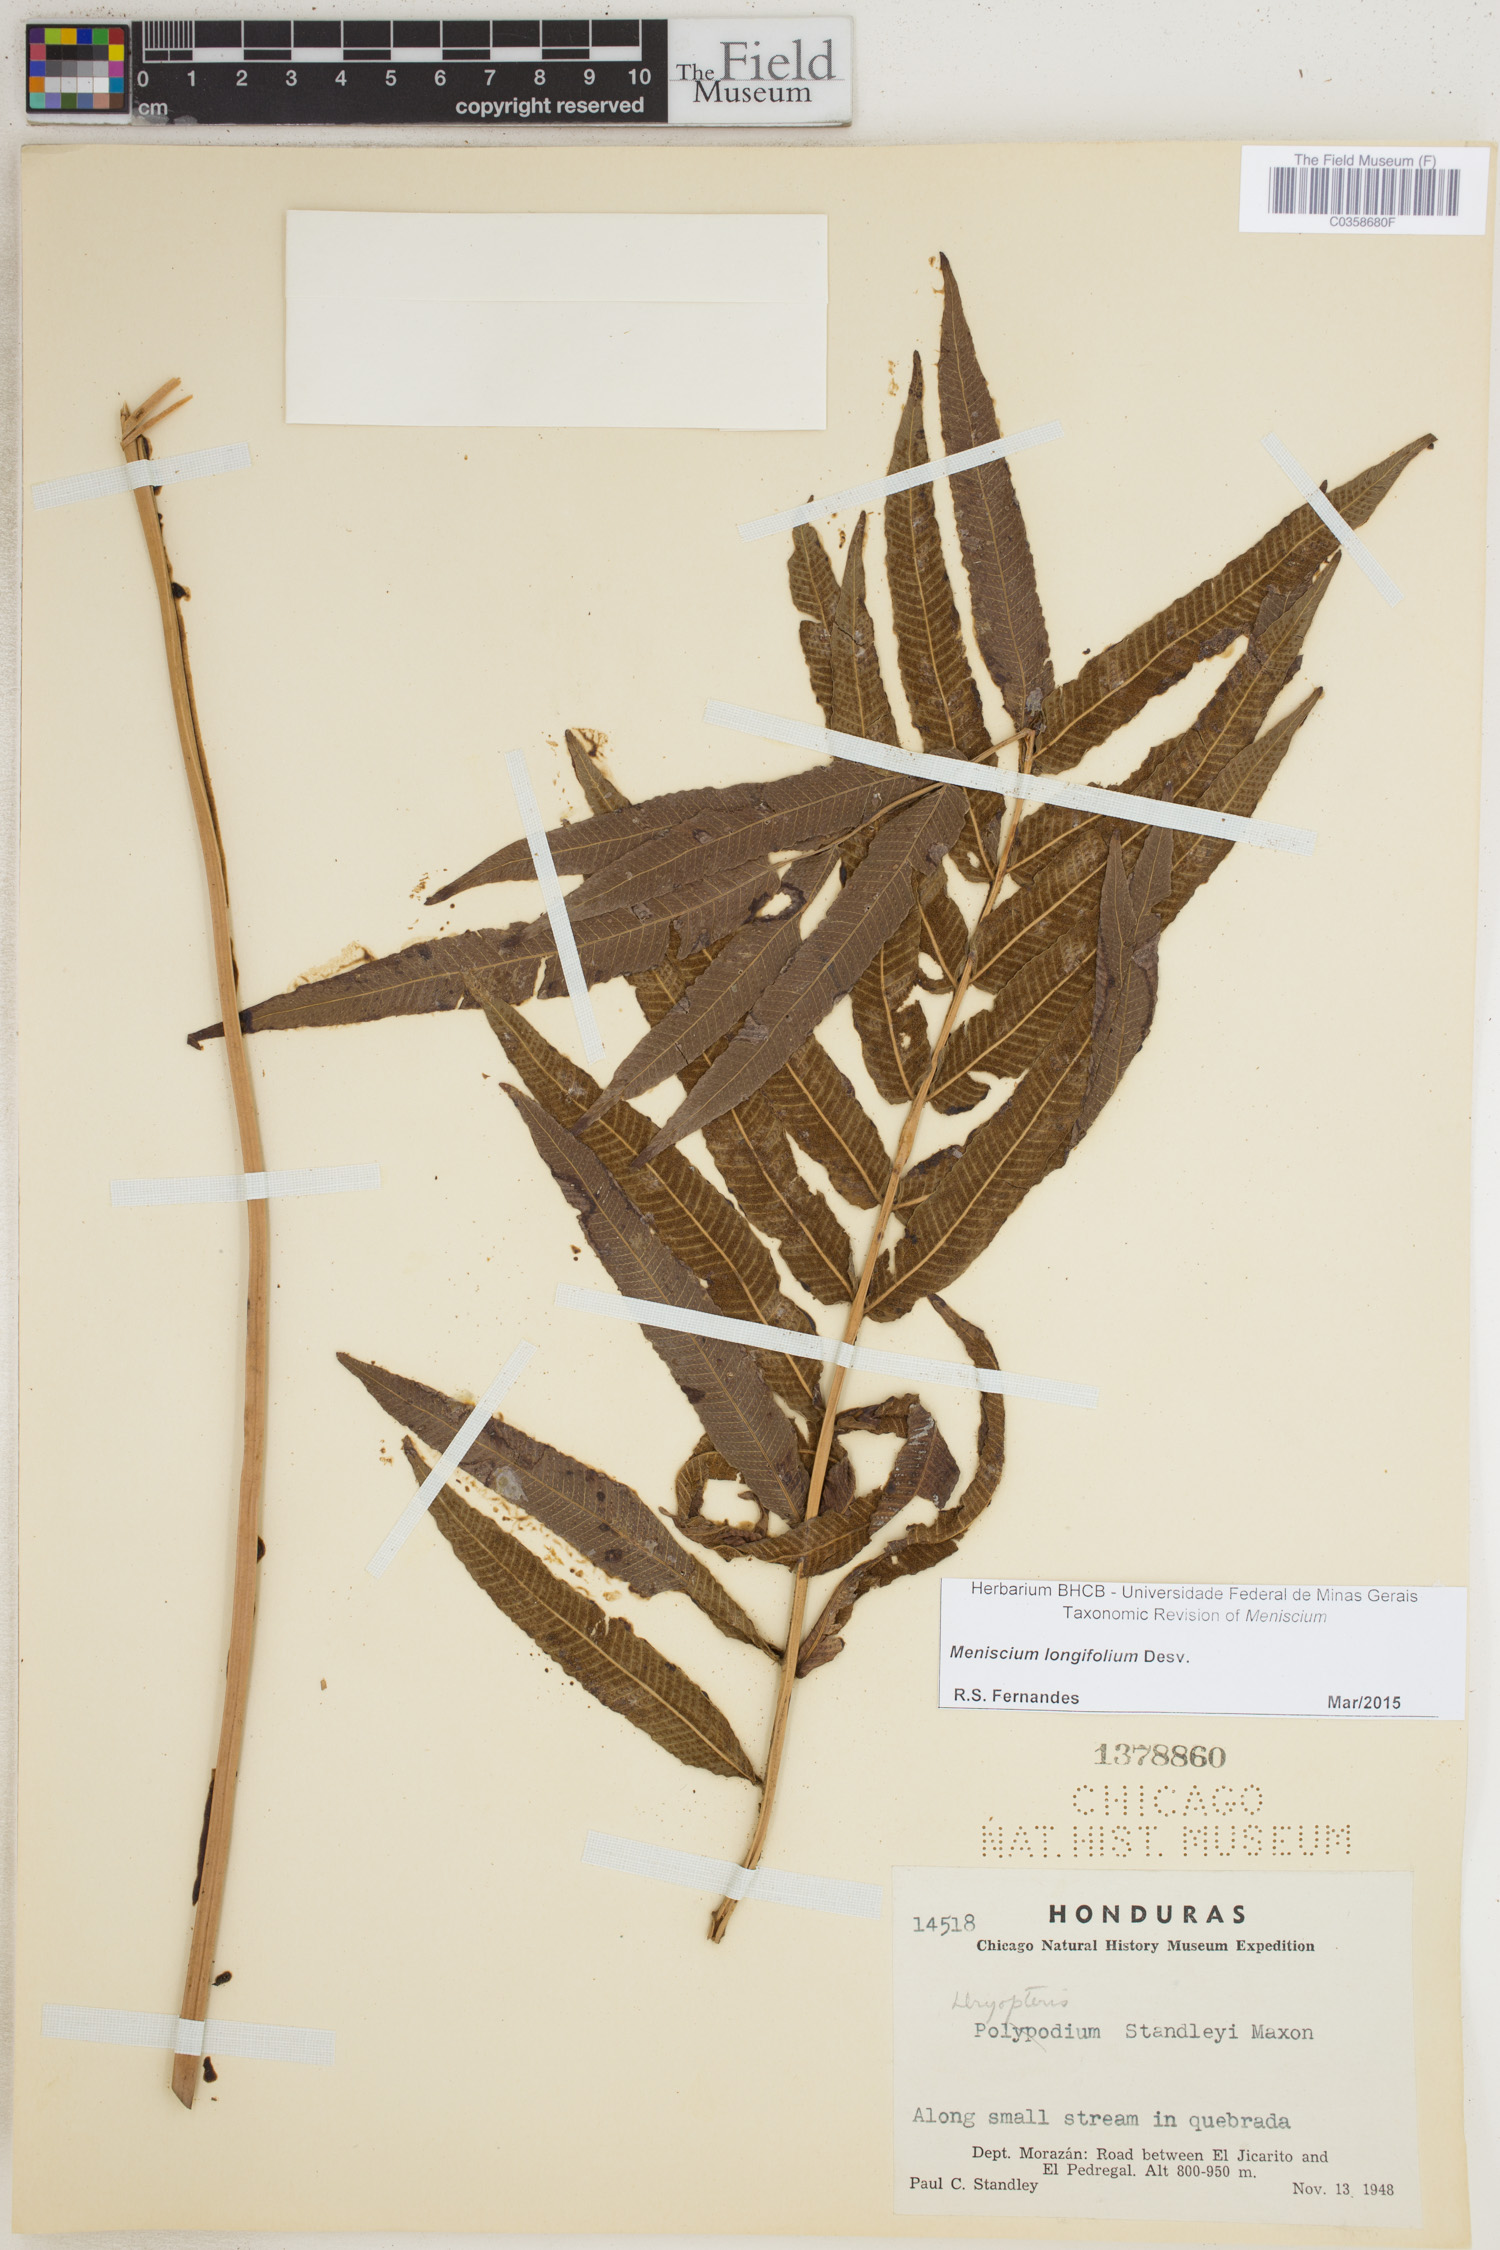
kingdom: Plantae
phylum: Tracheophyta
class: Polypodiopsida
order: Polypodiales
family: Thelypteridaceae
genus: Meniscium
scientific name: Meniscium longifolium
